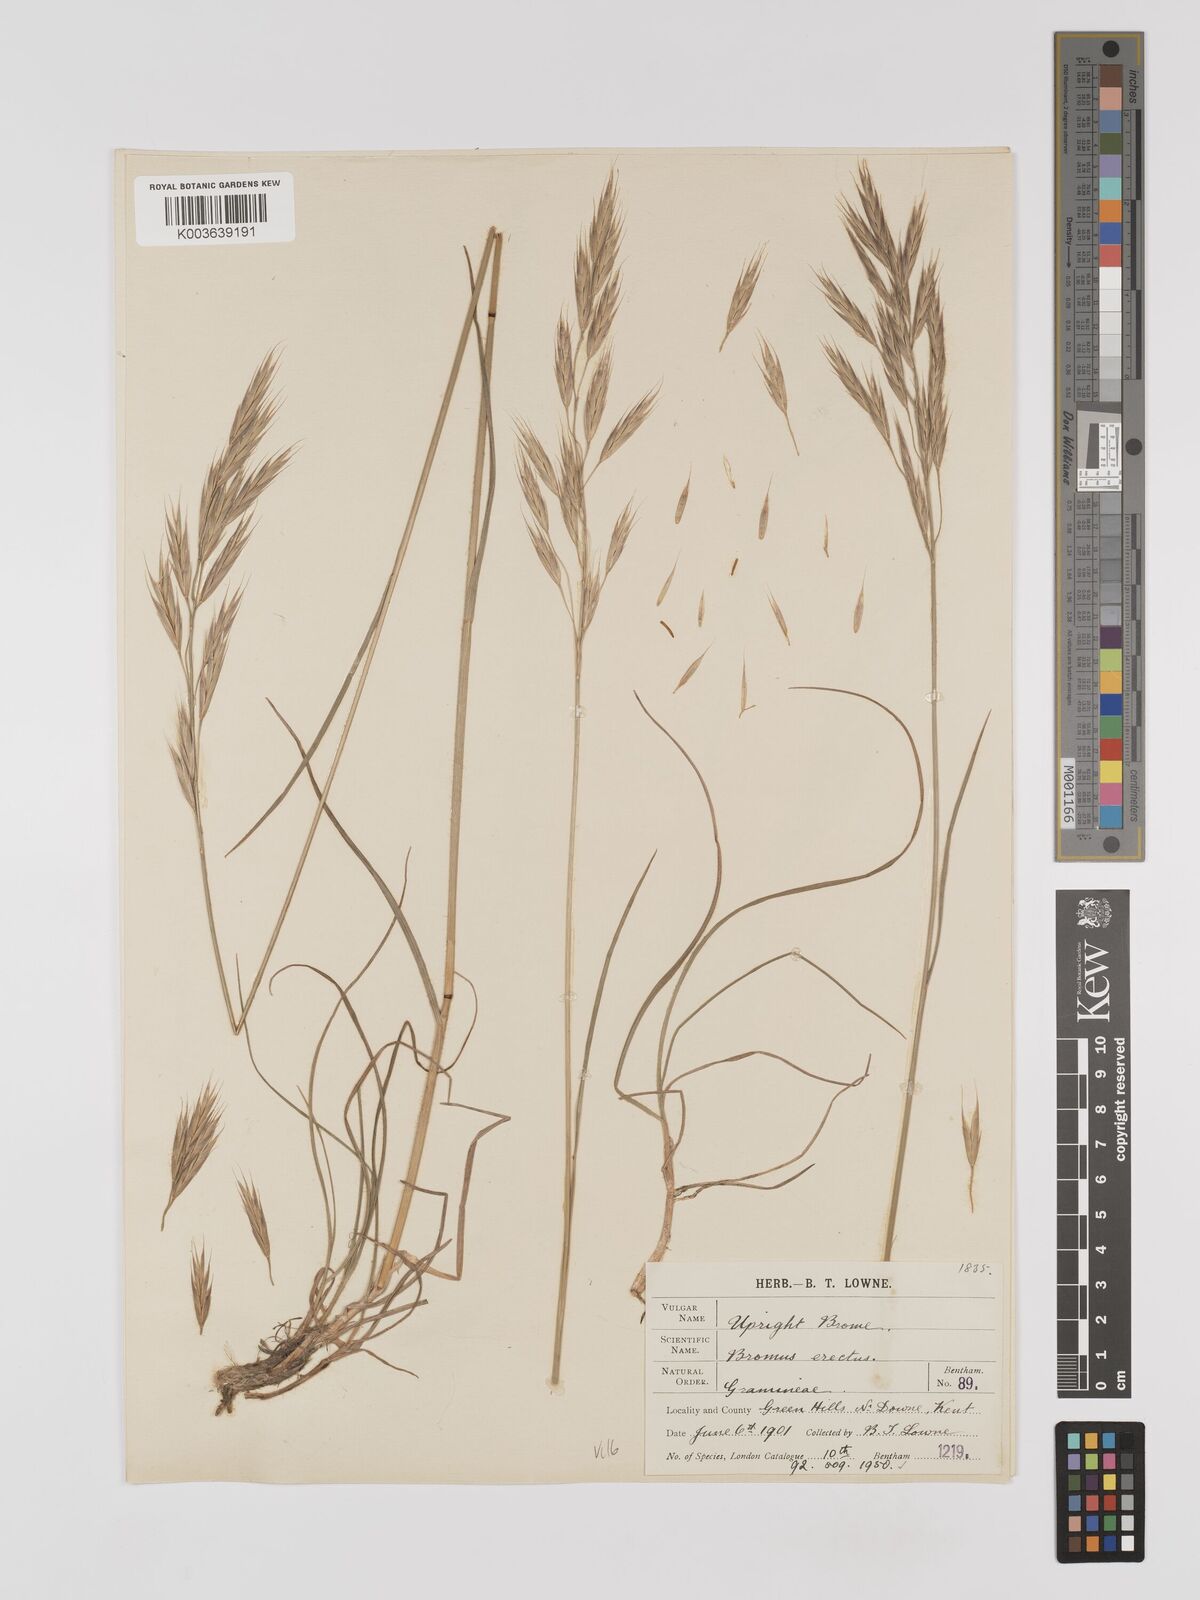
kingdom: Plantae
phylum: Tracheophyta
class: Liliopsida
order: Poales
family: Poaceae
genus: Bromus
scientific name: Bromus erectus
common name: Erect brome
